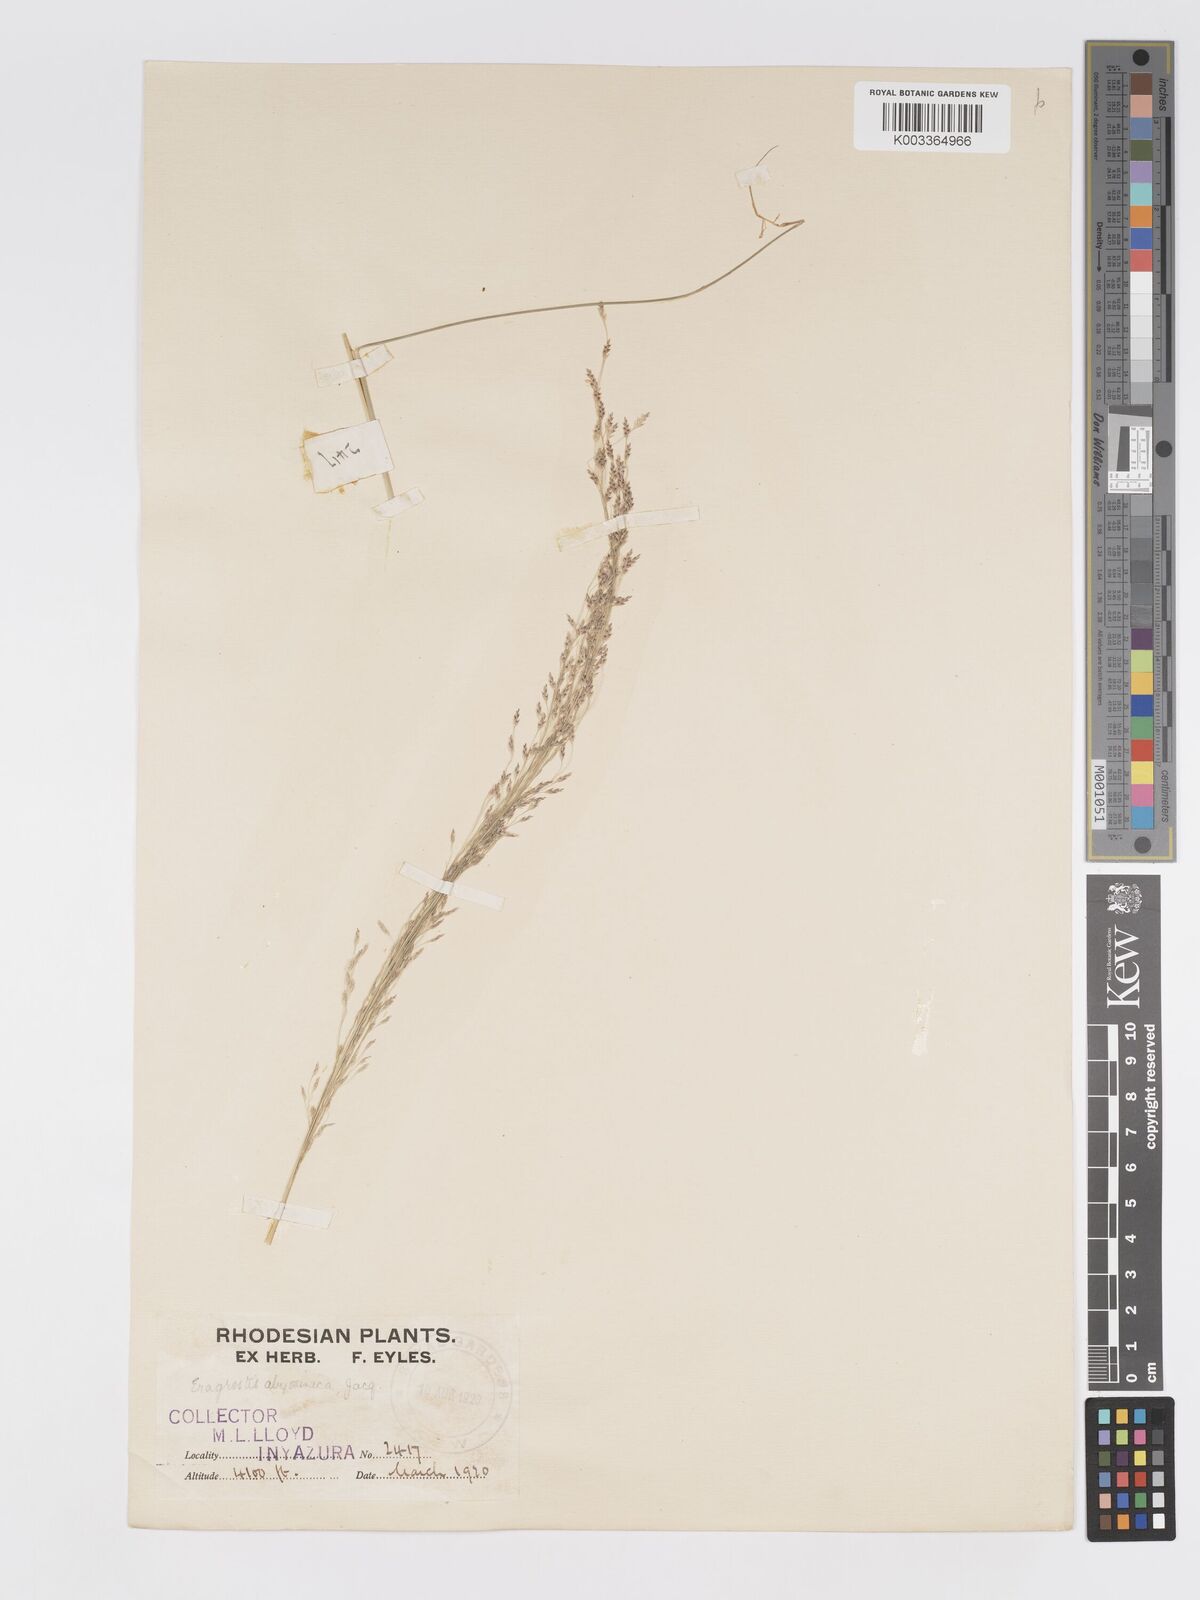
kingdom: Plantae
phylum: Tracheophyta
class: Liliopsida
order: Poales
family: Poaceae
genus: Eragrostis
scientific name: Eragrostis tef
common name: Teff
